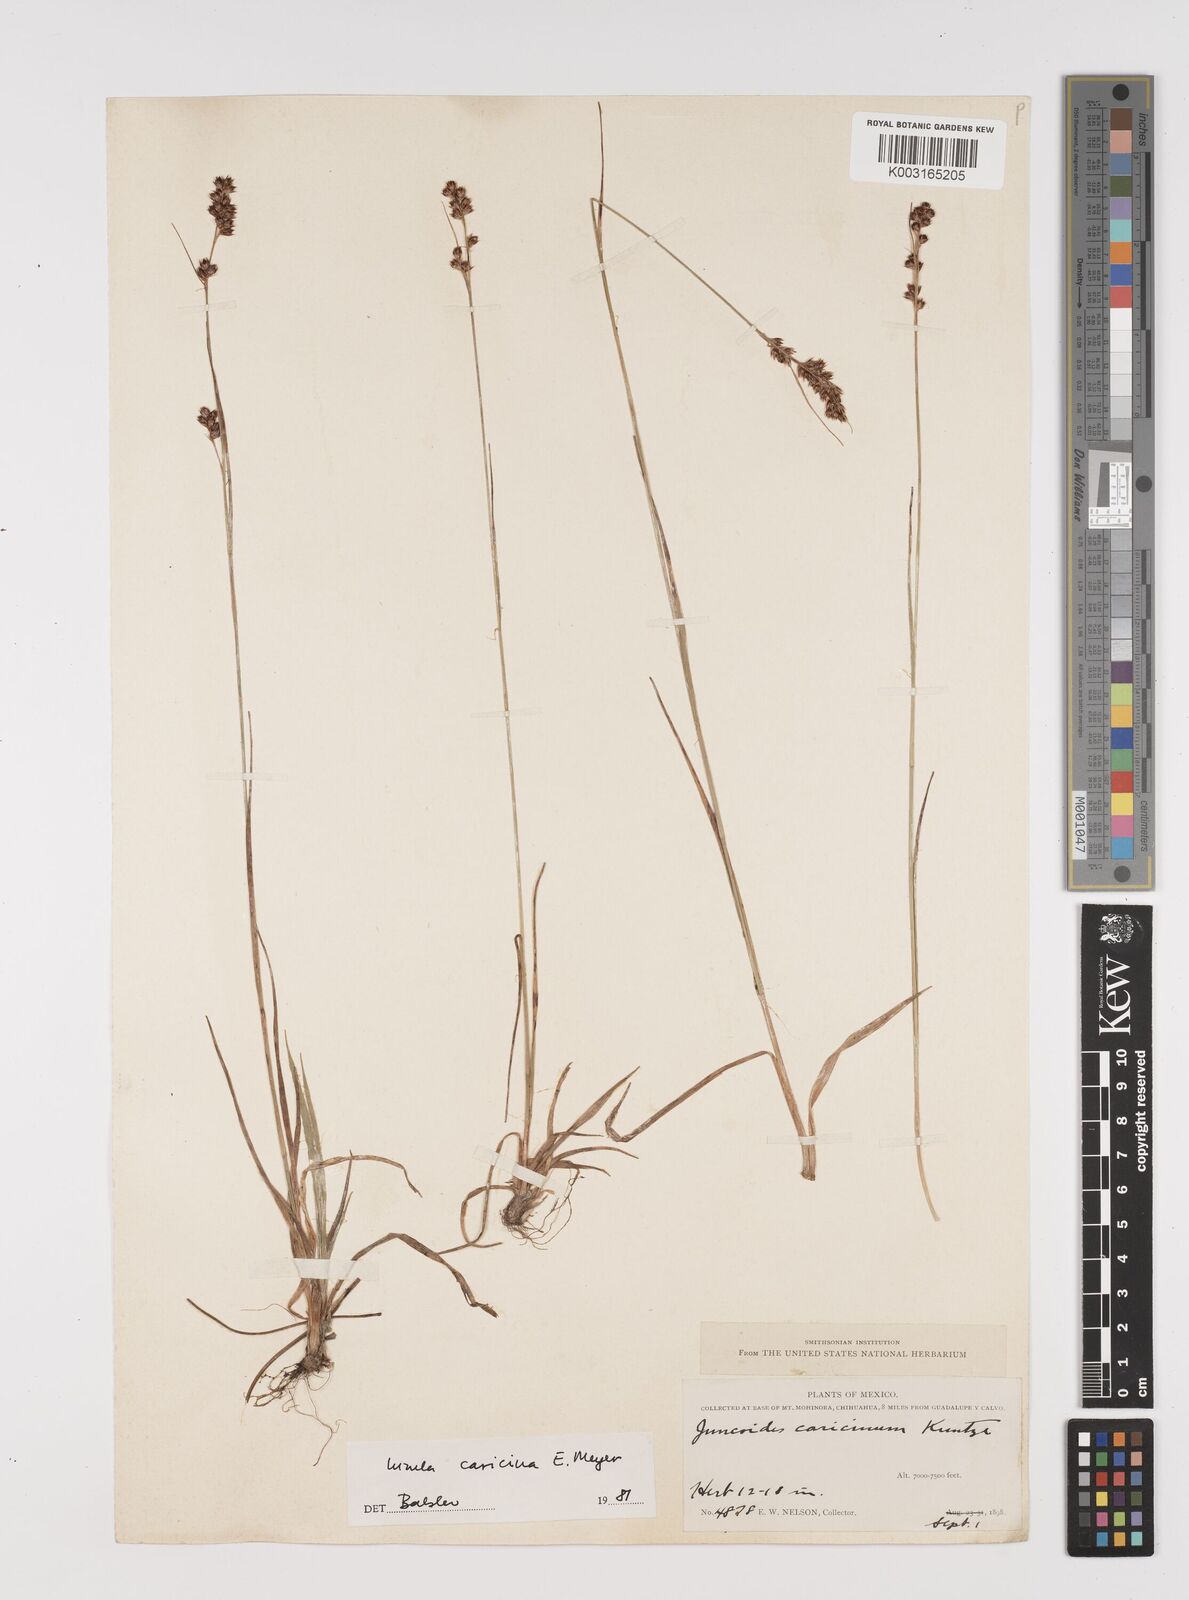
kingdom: Plantae
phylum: Tracheophyta
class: Liliopsida
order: Poales
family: Juncaceae
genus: Luzula
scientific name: Luzula caricina
